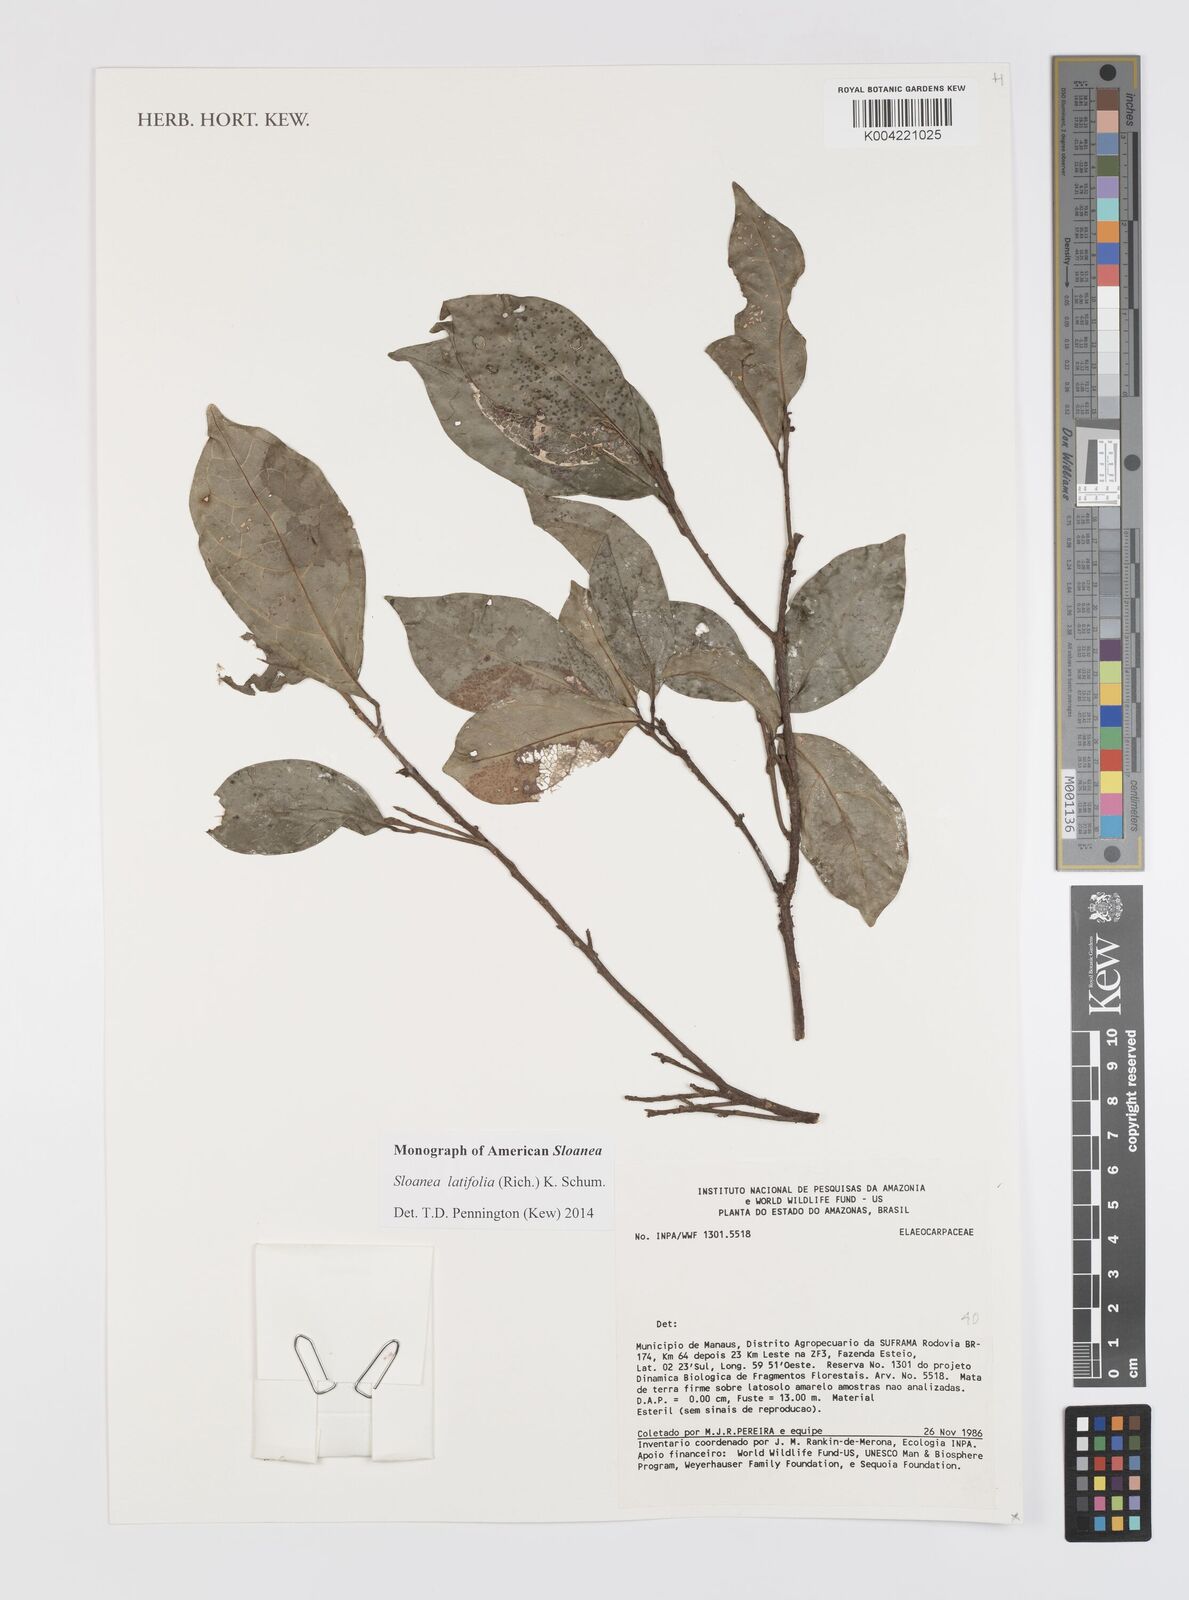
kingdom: Plantae
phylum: Tracheophyta
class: Magnoliopsida
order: Oxalidales
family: Elaeocarpaceae
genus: Sloanea
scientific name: Sloanea latifolia
